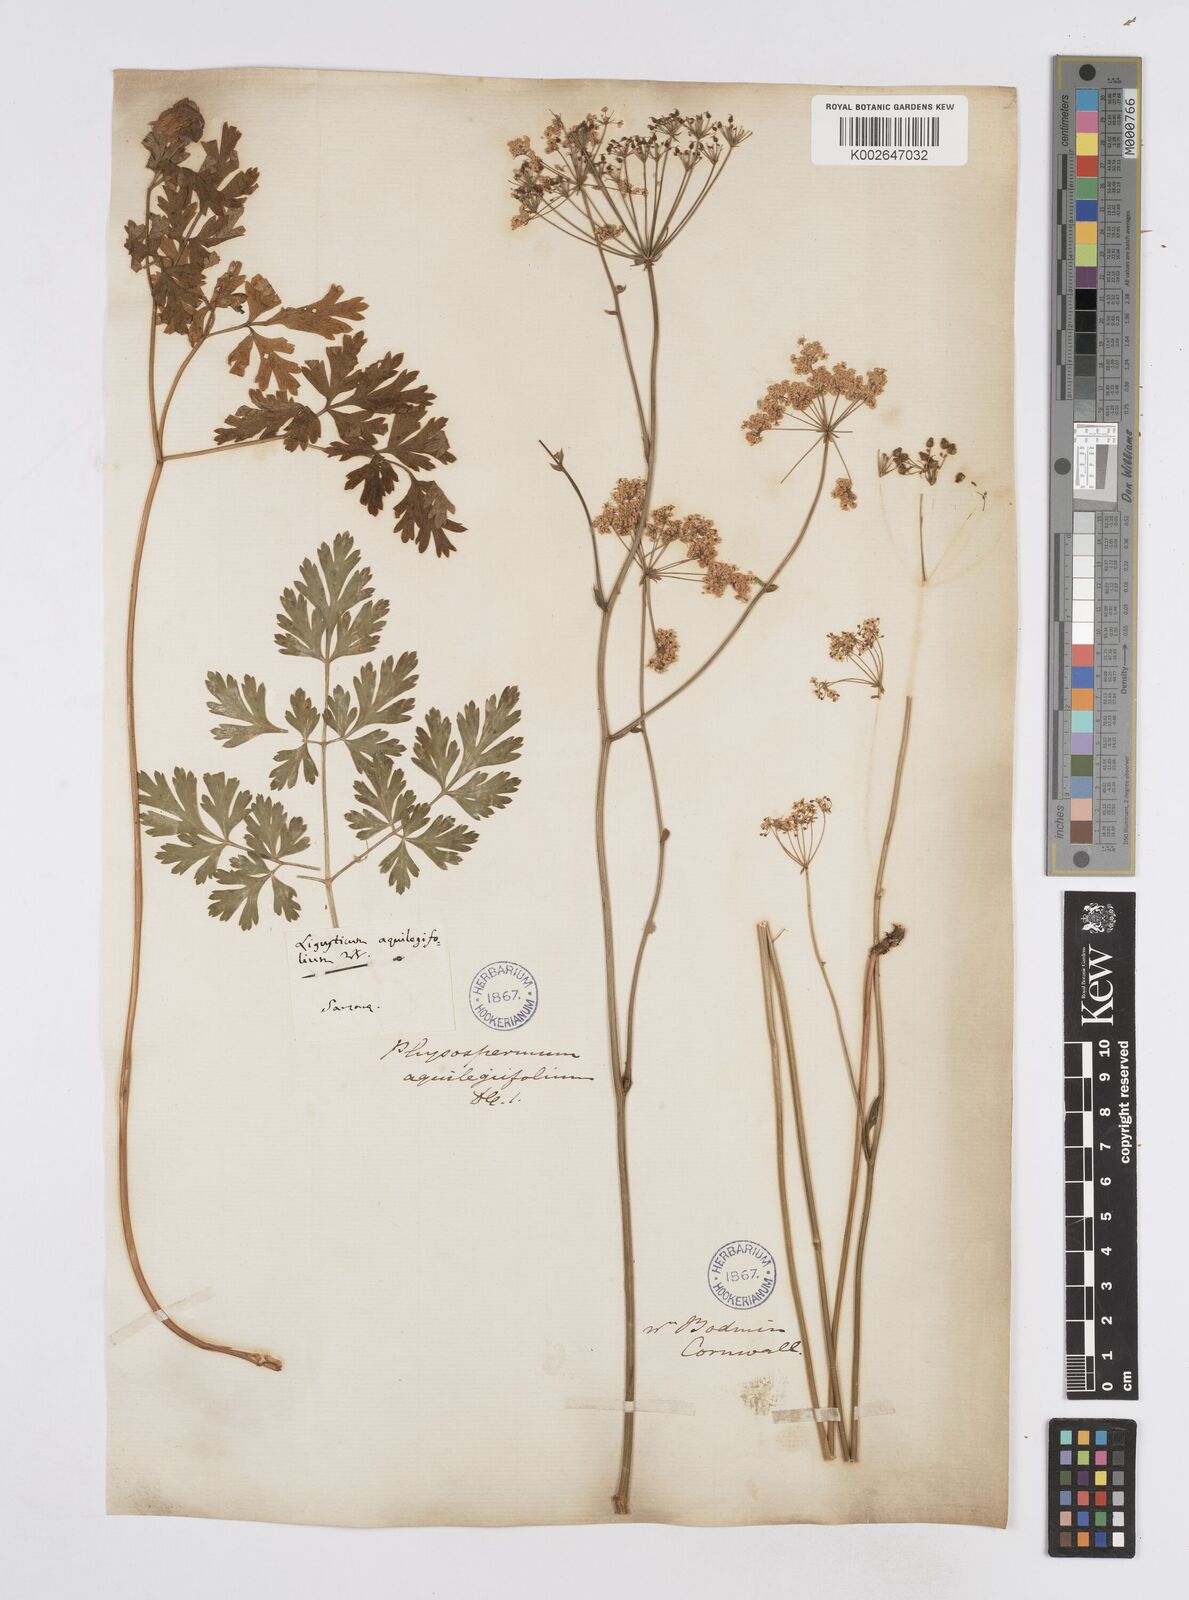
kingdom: Plantae
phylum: Tracheophyta
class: Magnoliopsida
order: Apiales
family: Apiaceae
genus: Physospermum
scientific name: Physospermum cornubiense
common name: Bladderseed
